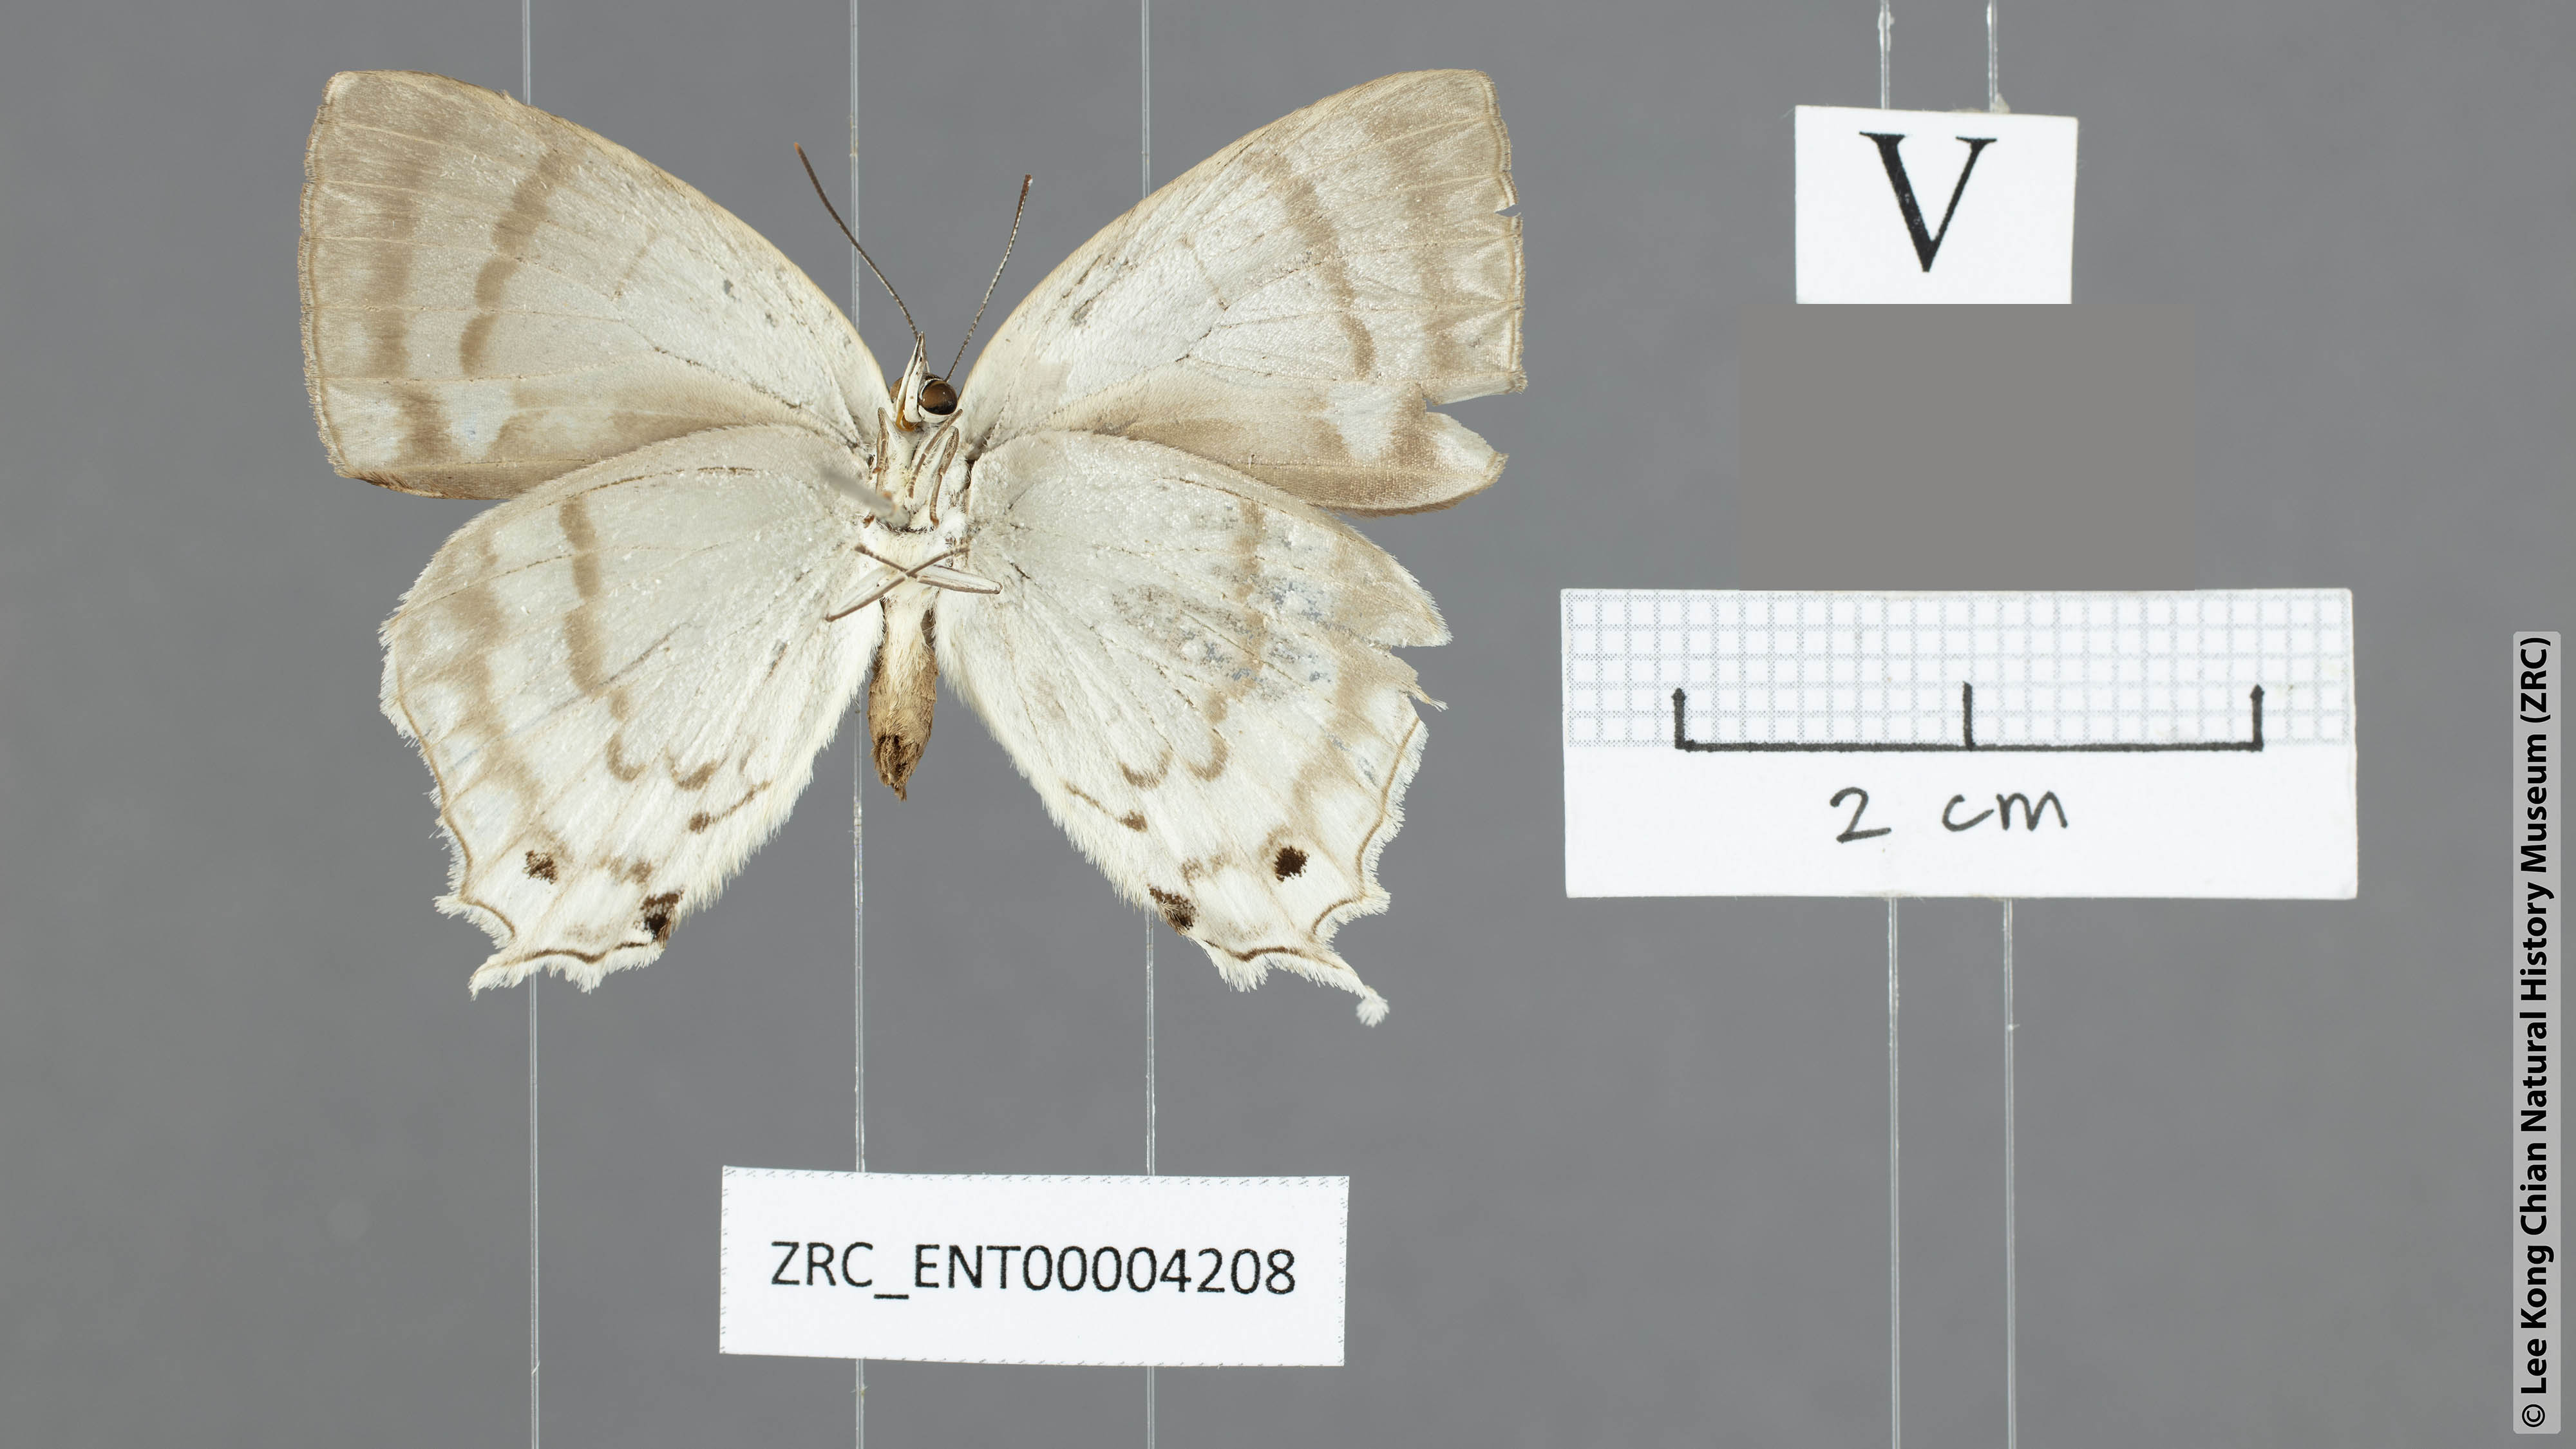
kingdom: Animalia
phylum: Arthropoda
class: Insecta
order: Lepidoptera
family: Lycaenidae
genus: Drina
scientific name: Drina cowani
